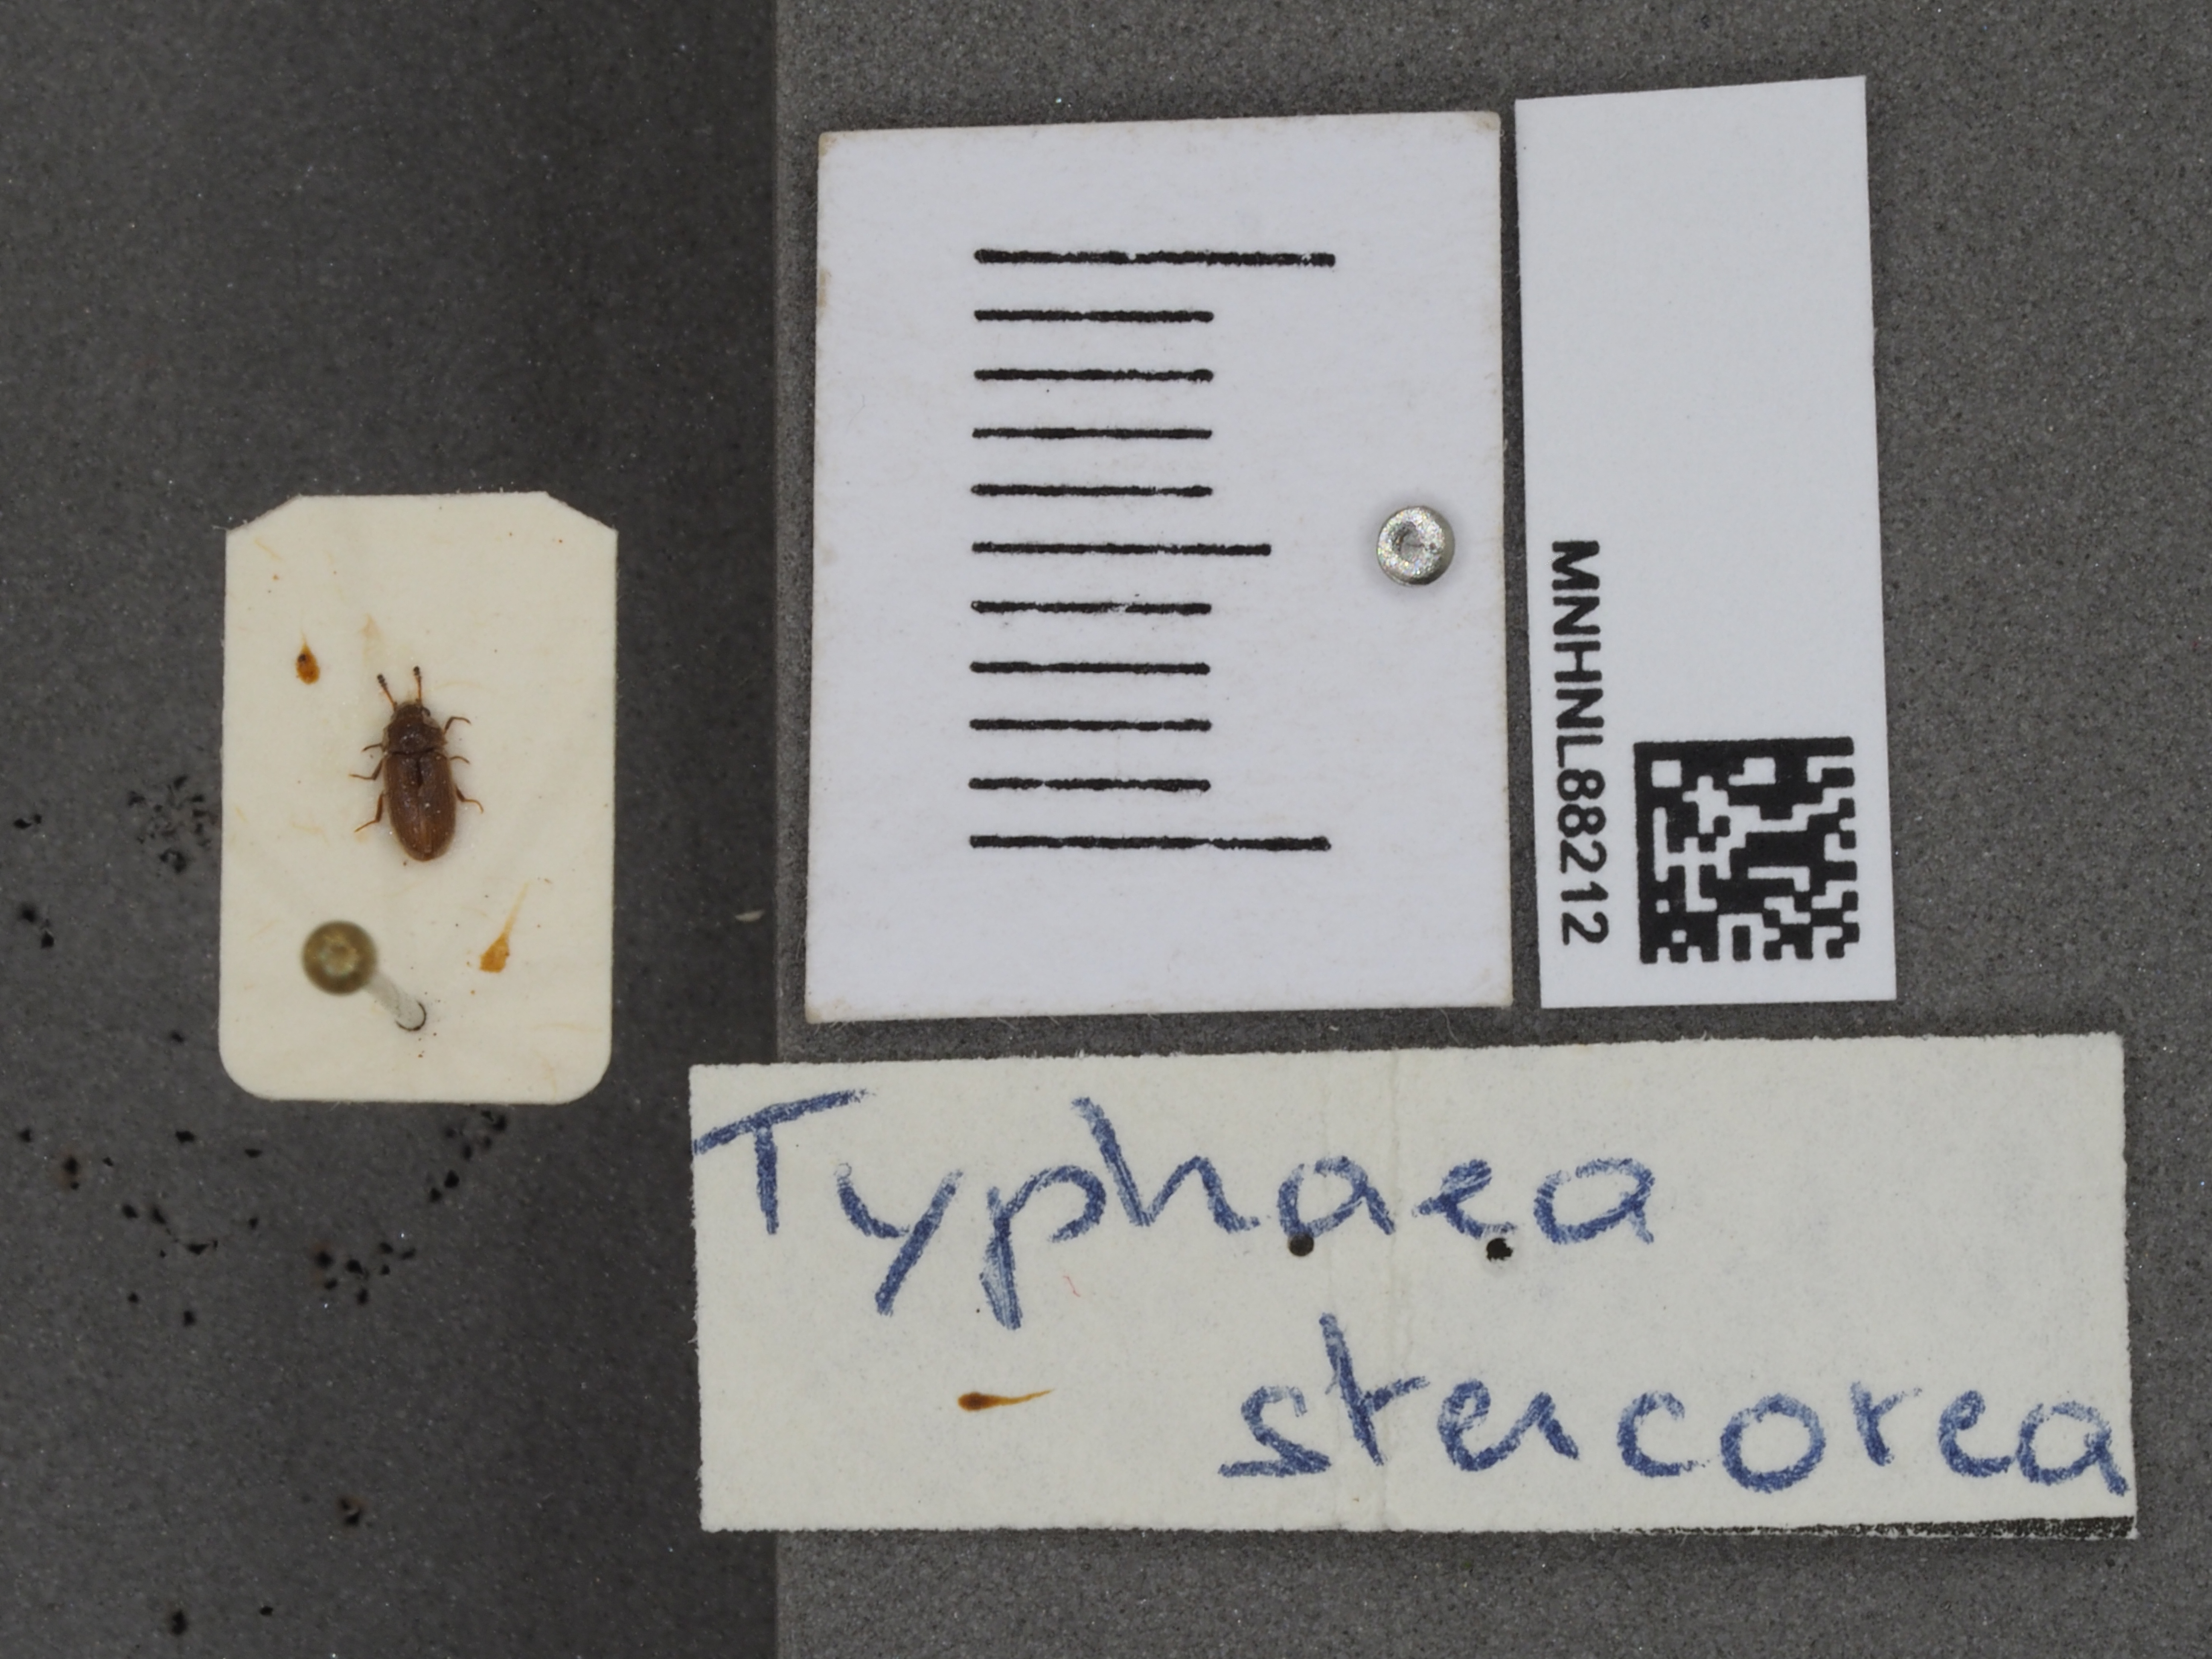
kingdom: Animalia
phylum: Arthropoda
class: Insecta
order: Coleoptera
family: Mycetophagidae
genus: Typhaea
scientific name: Typhaea stercorea
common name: Hairy fungus beetle
